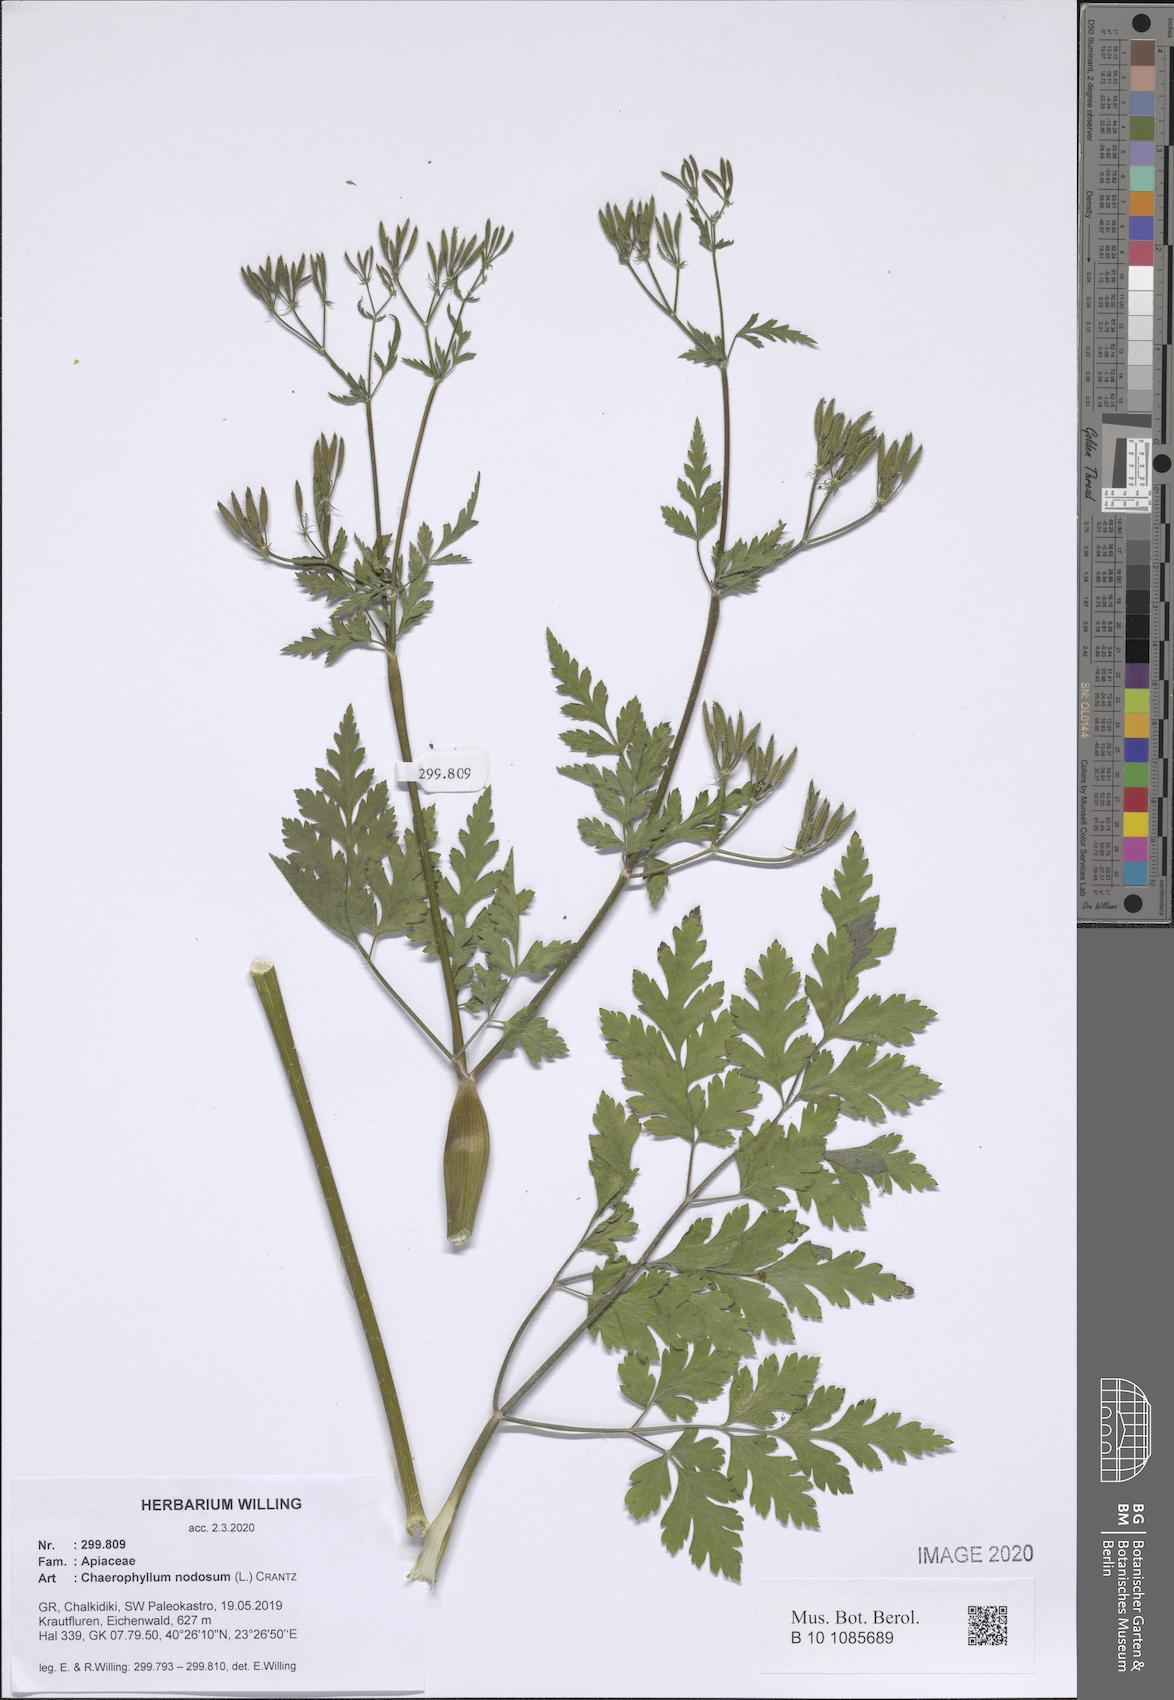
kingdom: Plantae
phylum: Tracheophyta
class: Magnoliopsida
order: Apiales
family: Apiaceae
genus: Chaerophyllum
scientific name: Chaerophyllum nodosum
